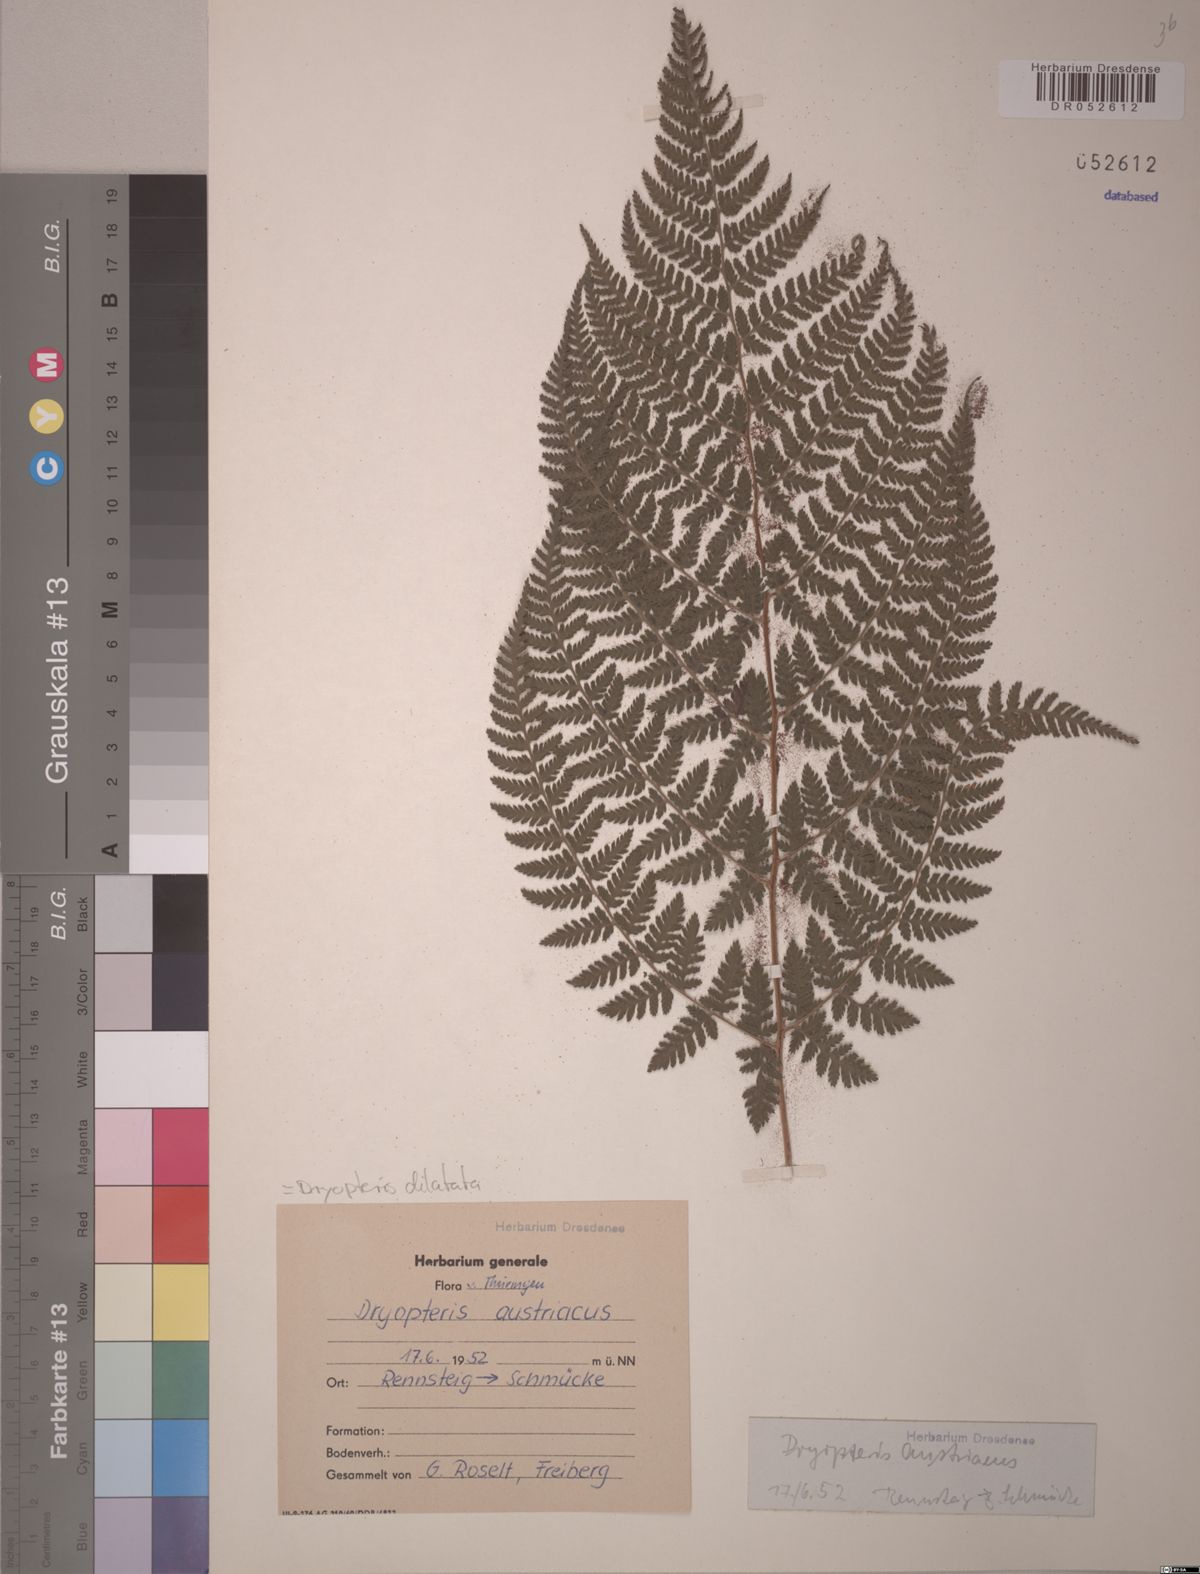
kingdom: Plantae
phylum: Tracheophyta
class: Polypodiopsida
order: Polypodiales
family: Dryopteridaceae
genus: Dryopteris
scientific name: Dryopteris dilatata
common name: Broad buckler-fern
